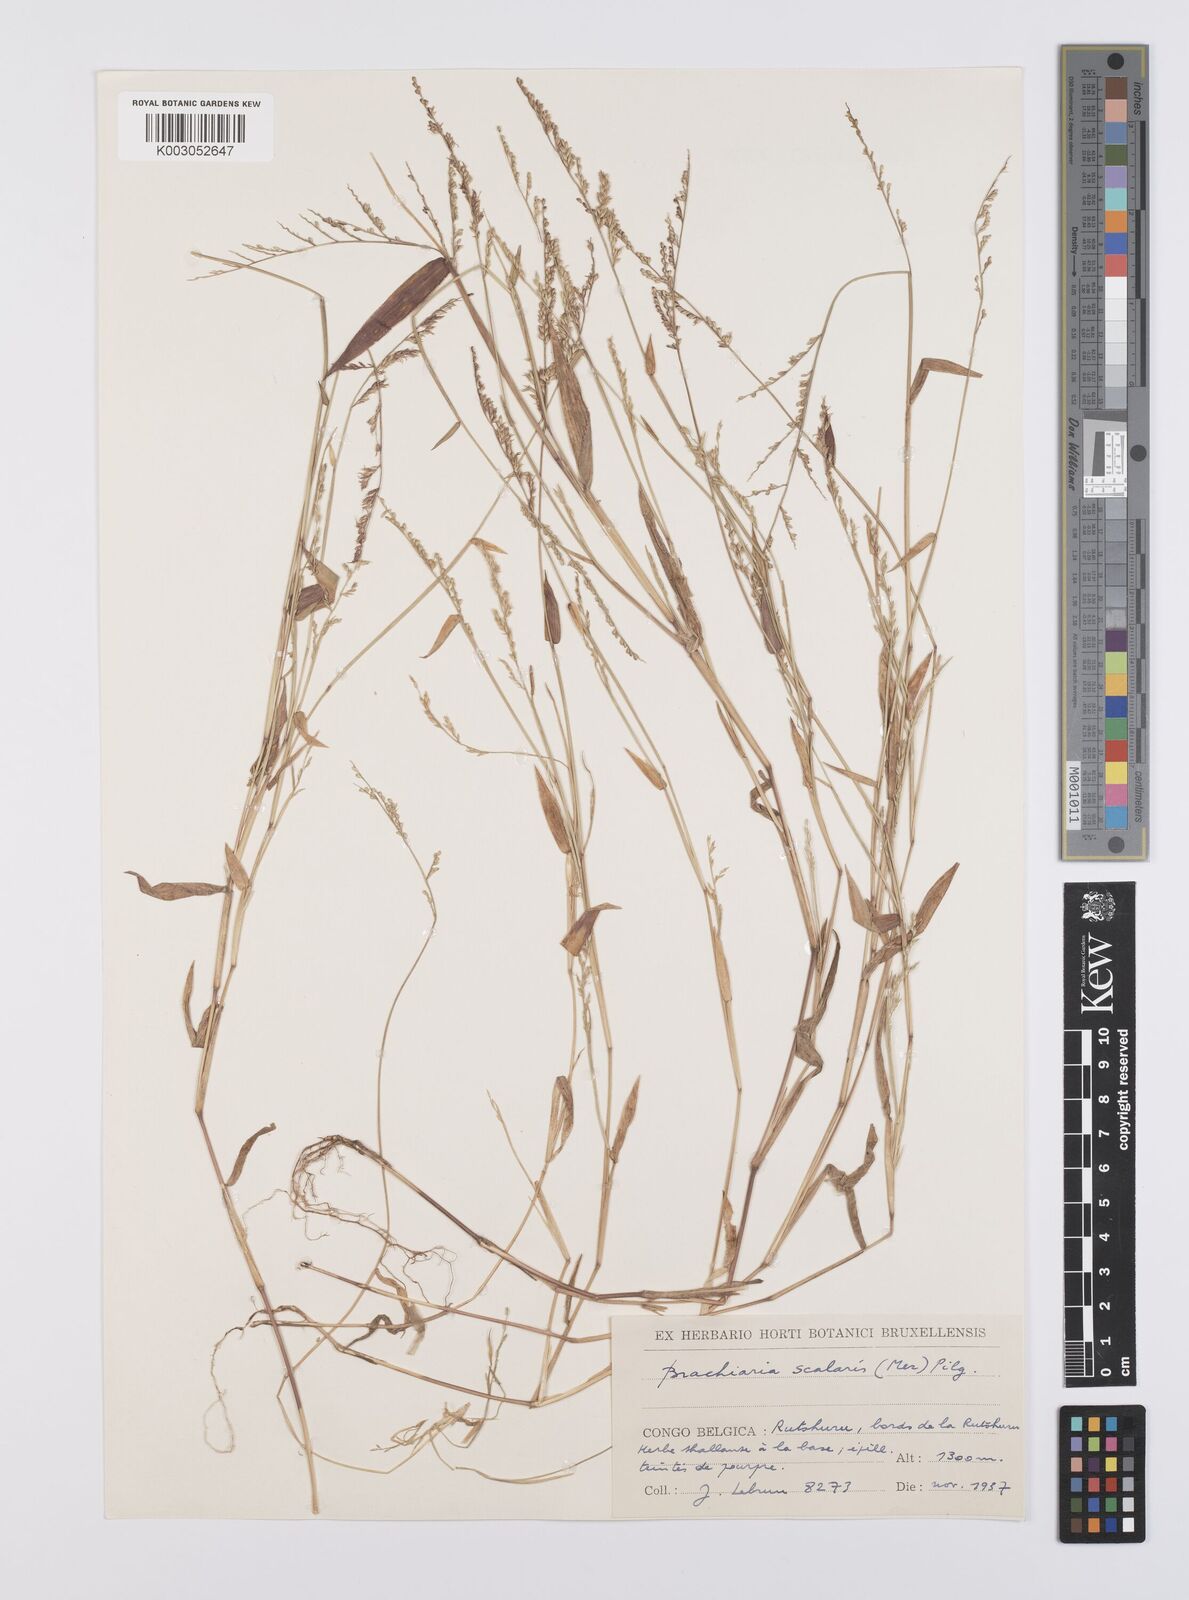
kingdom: Plantae
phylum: Tracheophyta
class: Liliopsida
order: Poales
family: Poaceae
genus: Urochloa
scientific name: Urochloa comata
